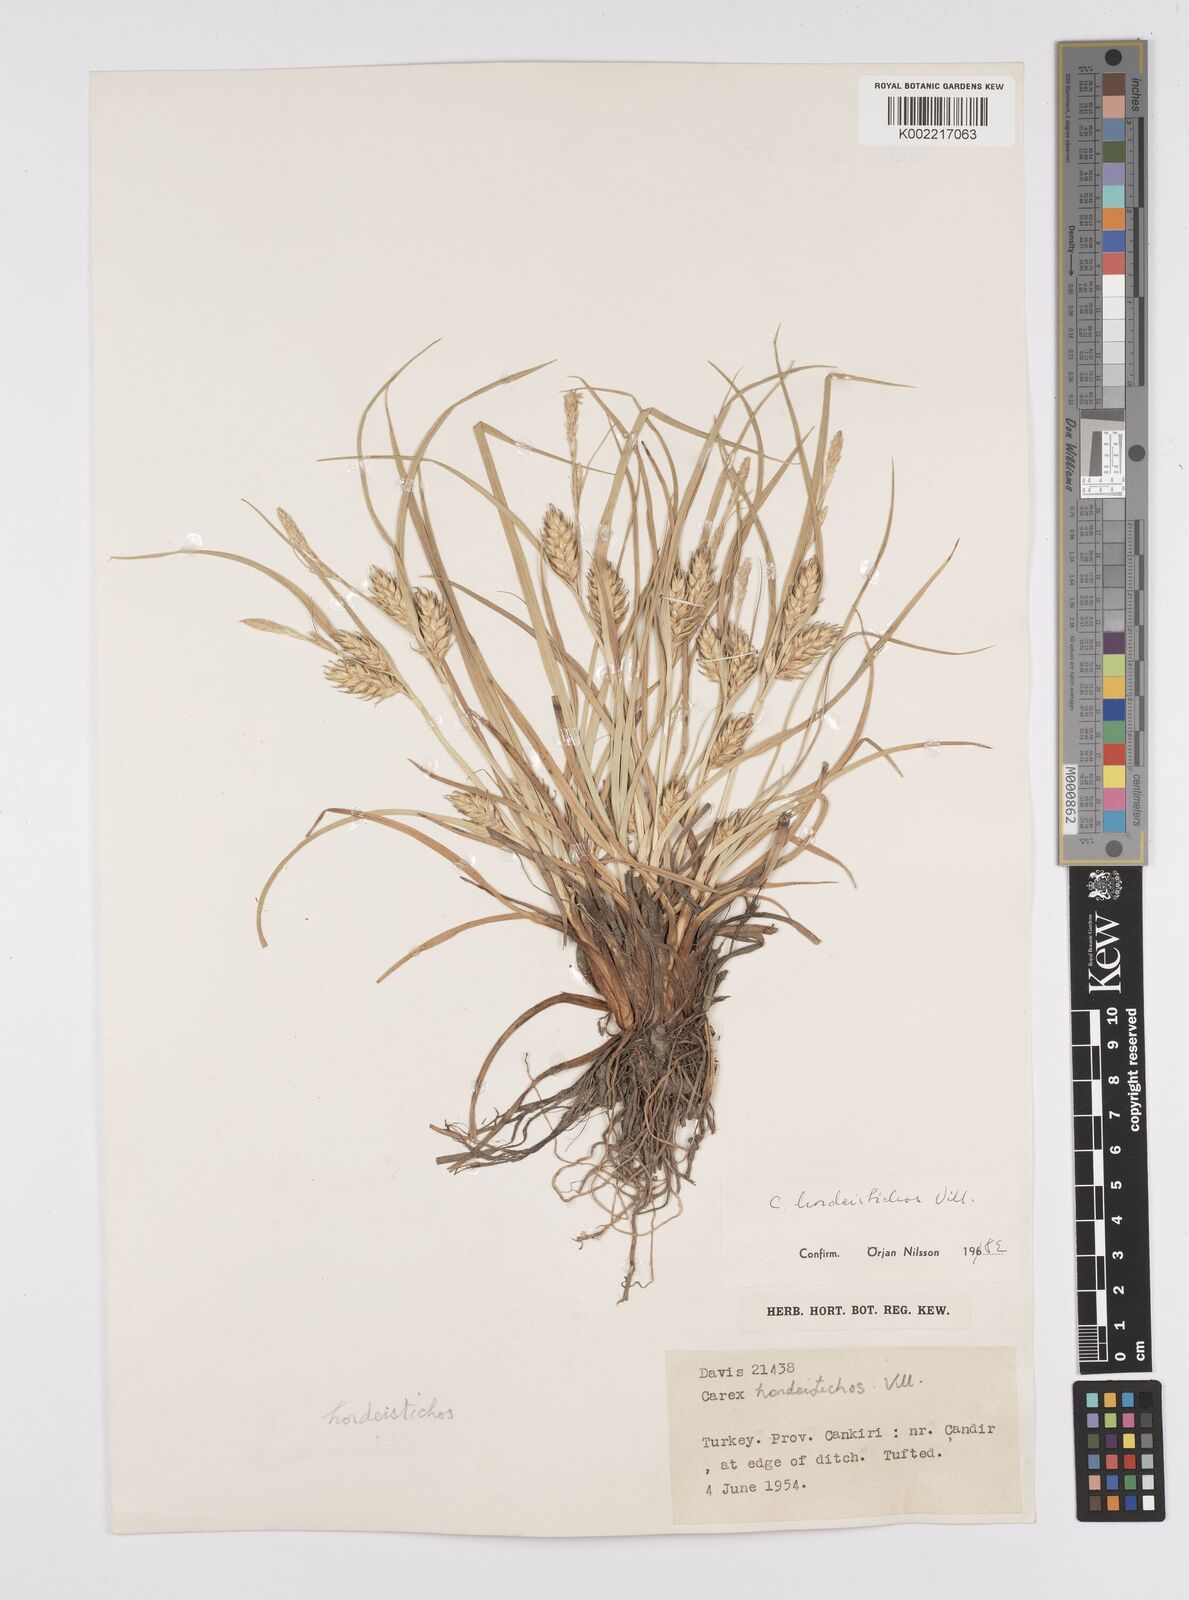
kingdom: Plantae
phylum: Tracheophyta
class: Liliopsida
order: Poales
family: Cyperaceae
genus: Carex
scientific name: Carex hordeistichos
